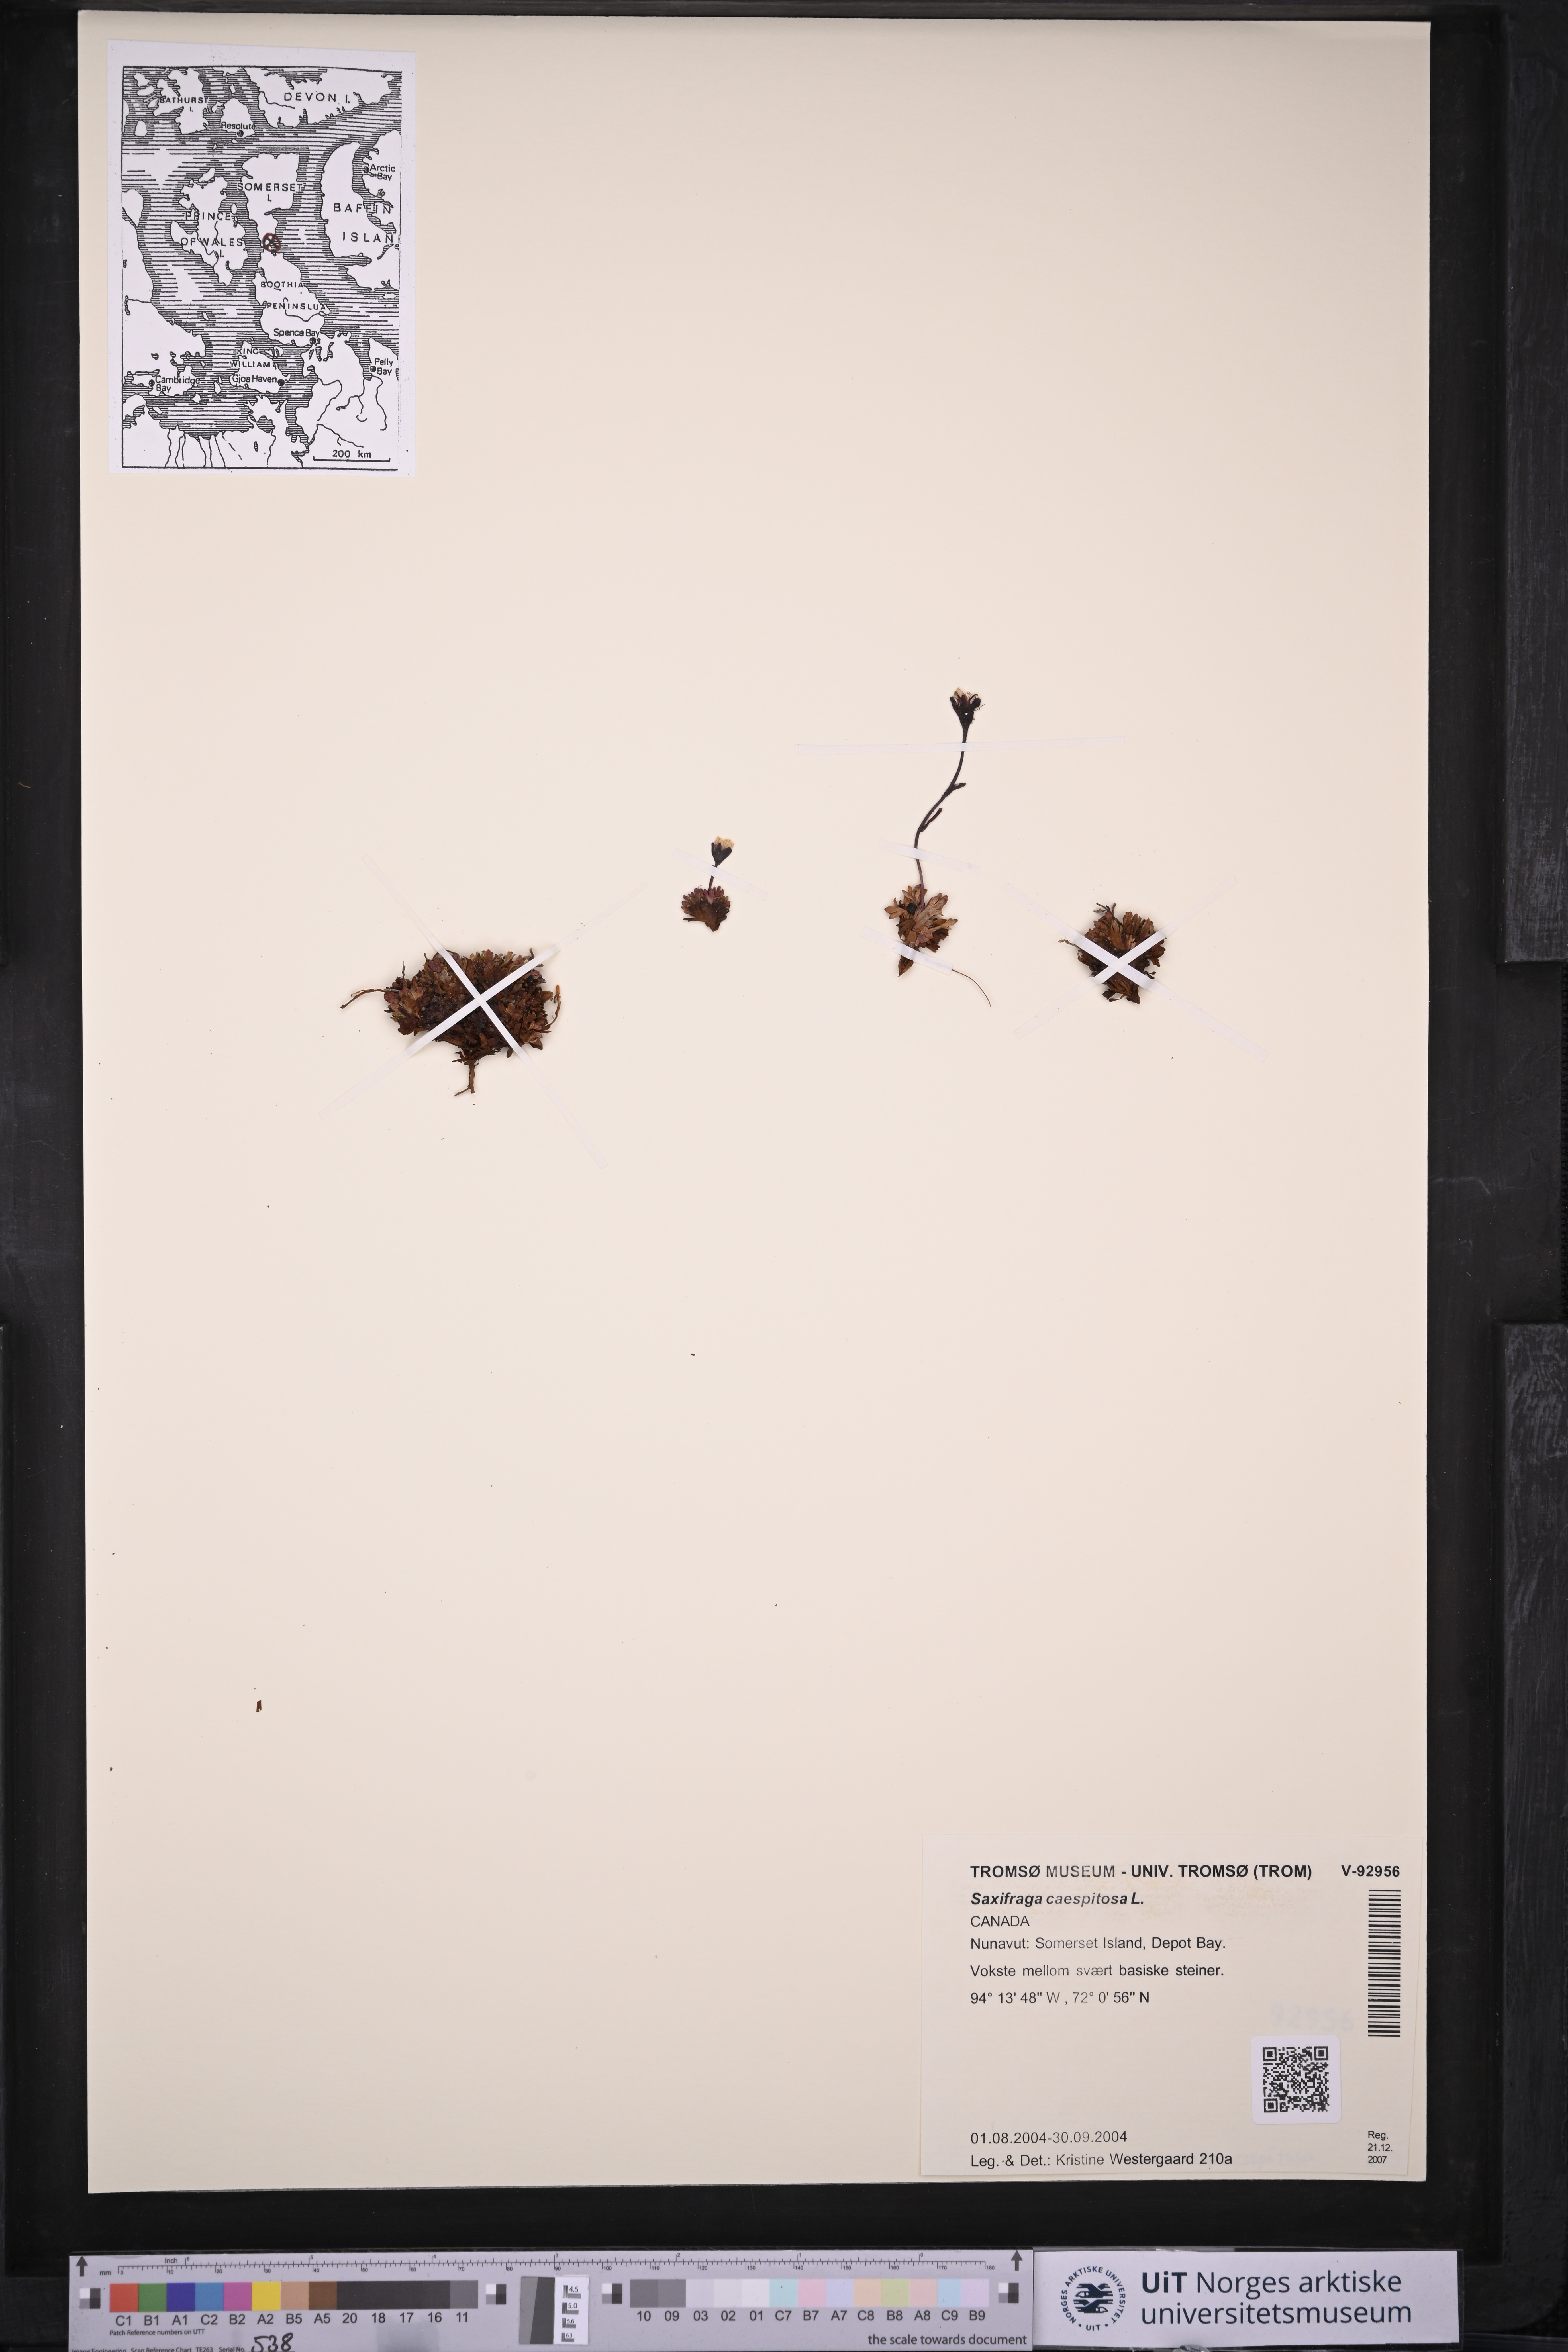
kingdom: Plantae
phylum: Tracheophyta
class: Magnoliopsida
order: Saxifragales
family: Saxifragaceae
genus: Saxifraga
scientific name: Saxifraga cespitosa
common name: Tufted saxifrage
